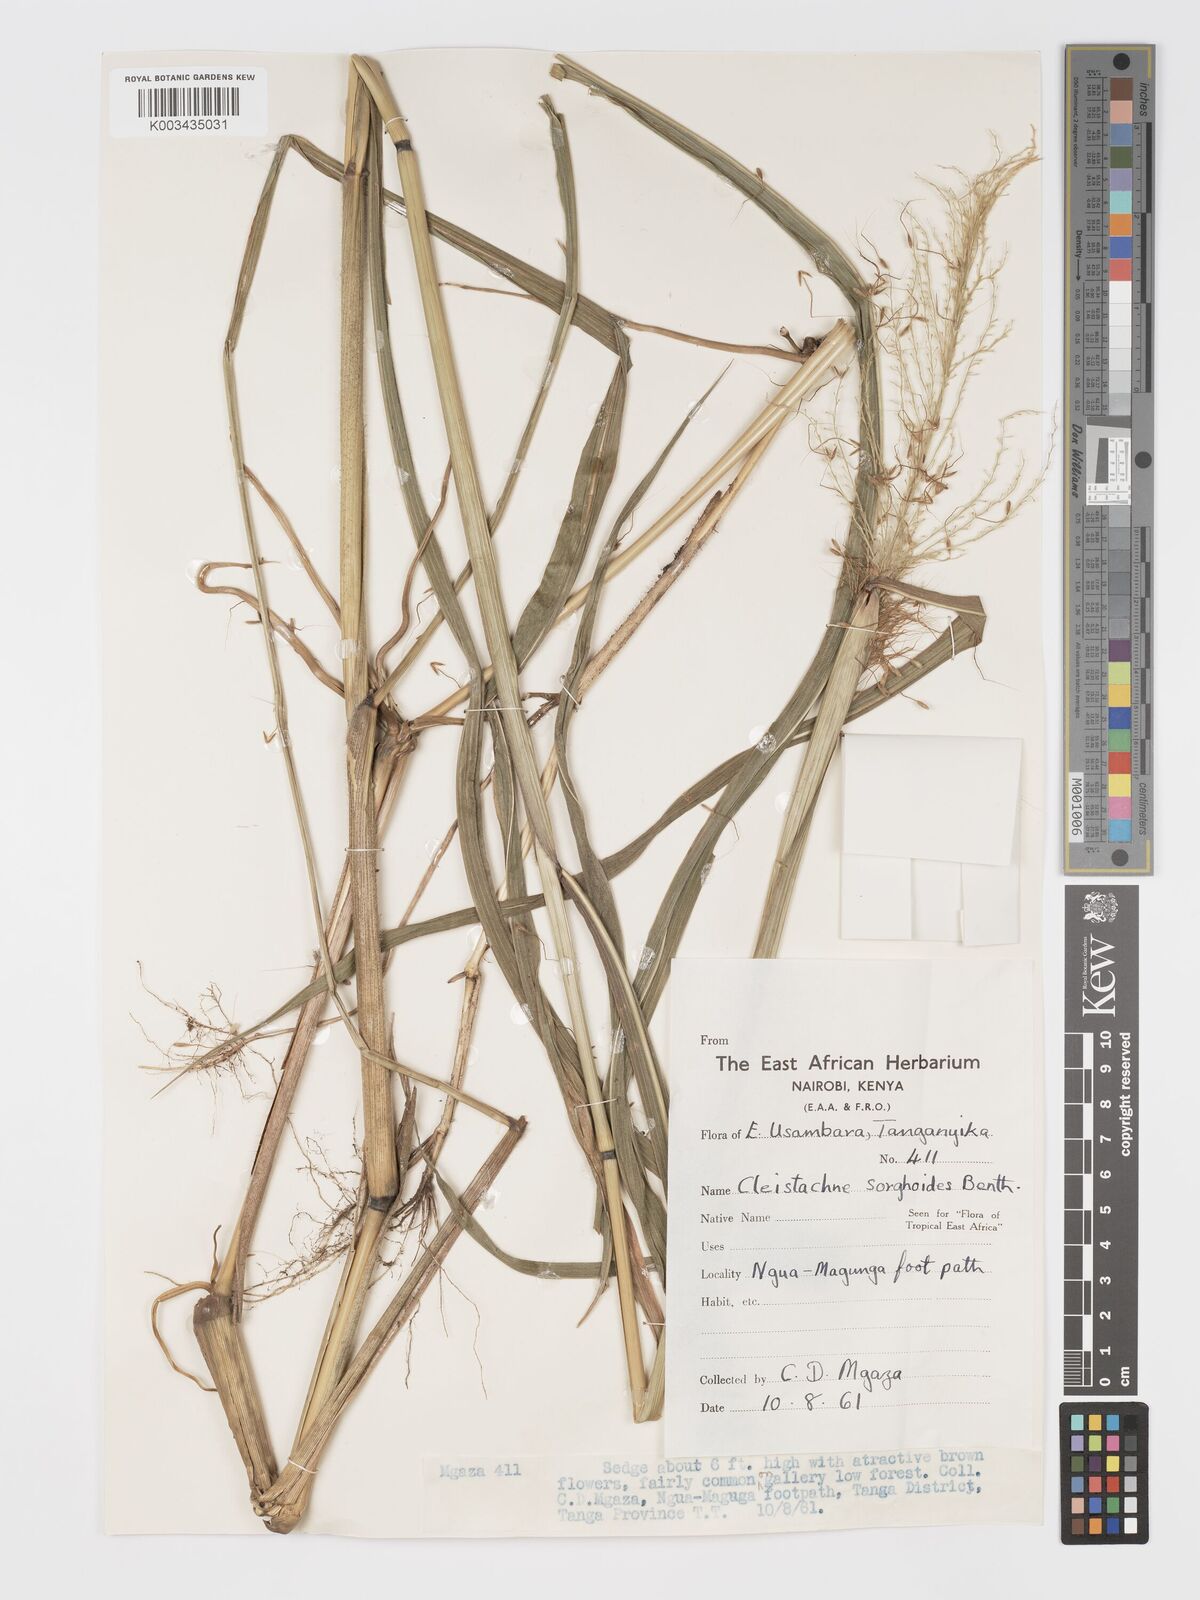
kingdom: Plantae
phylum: Tracheophyta
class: Liliopsida
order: Poales
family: Poaceae
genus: Cleistachne
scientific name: Cleistachne sorghoides
